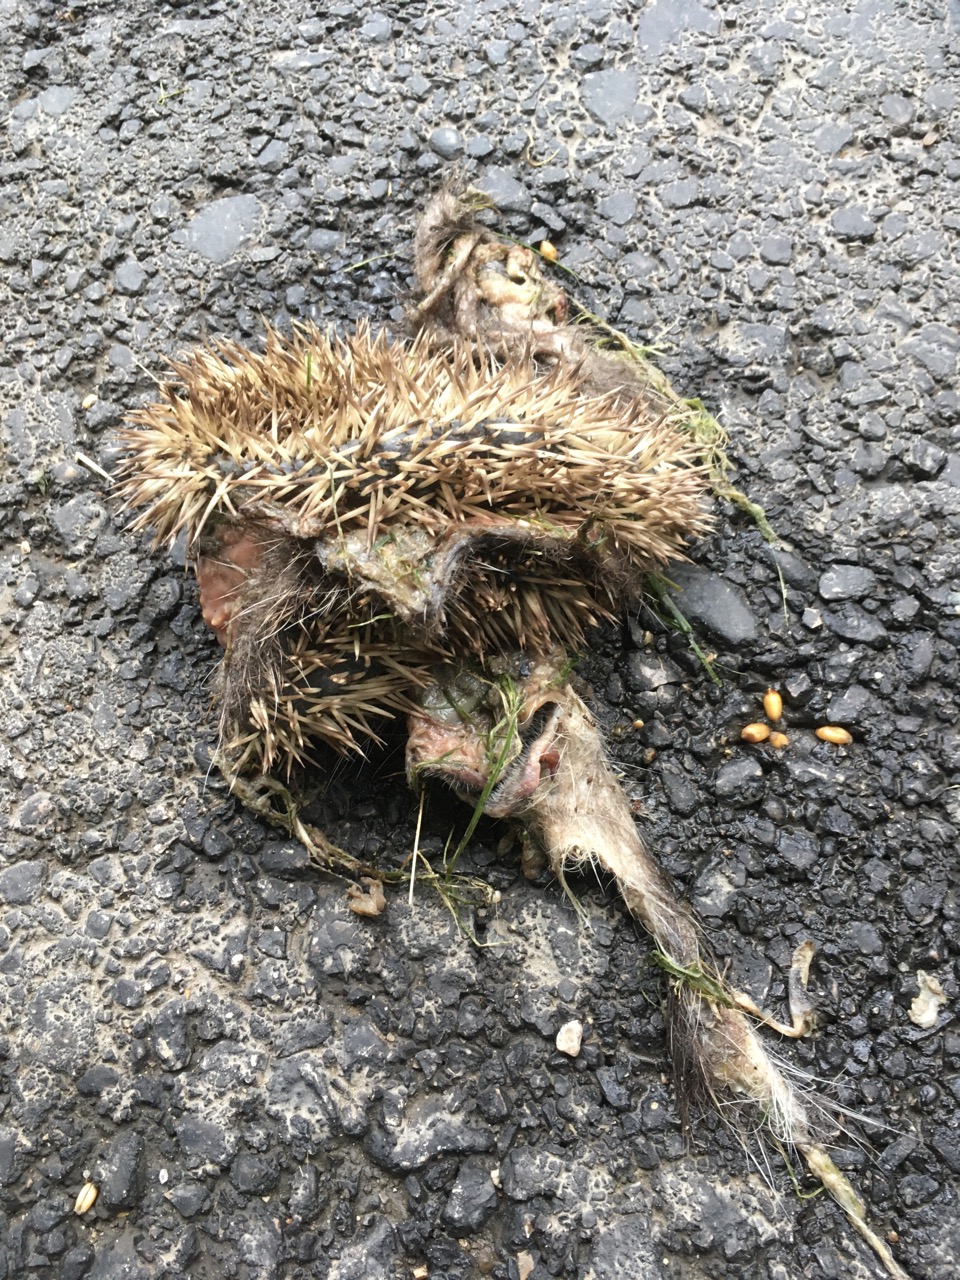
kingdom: Animalia
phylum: Chordata
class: Mammalia
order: Erinaceomorpha
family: Erinaceidae
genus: Erinaceus
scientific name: Erinaceus
